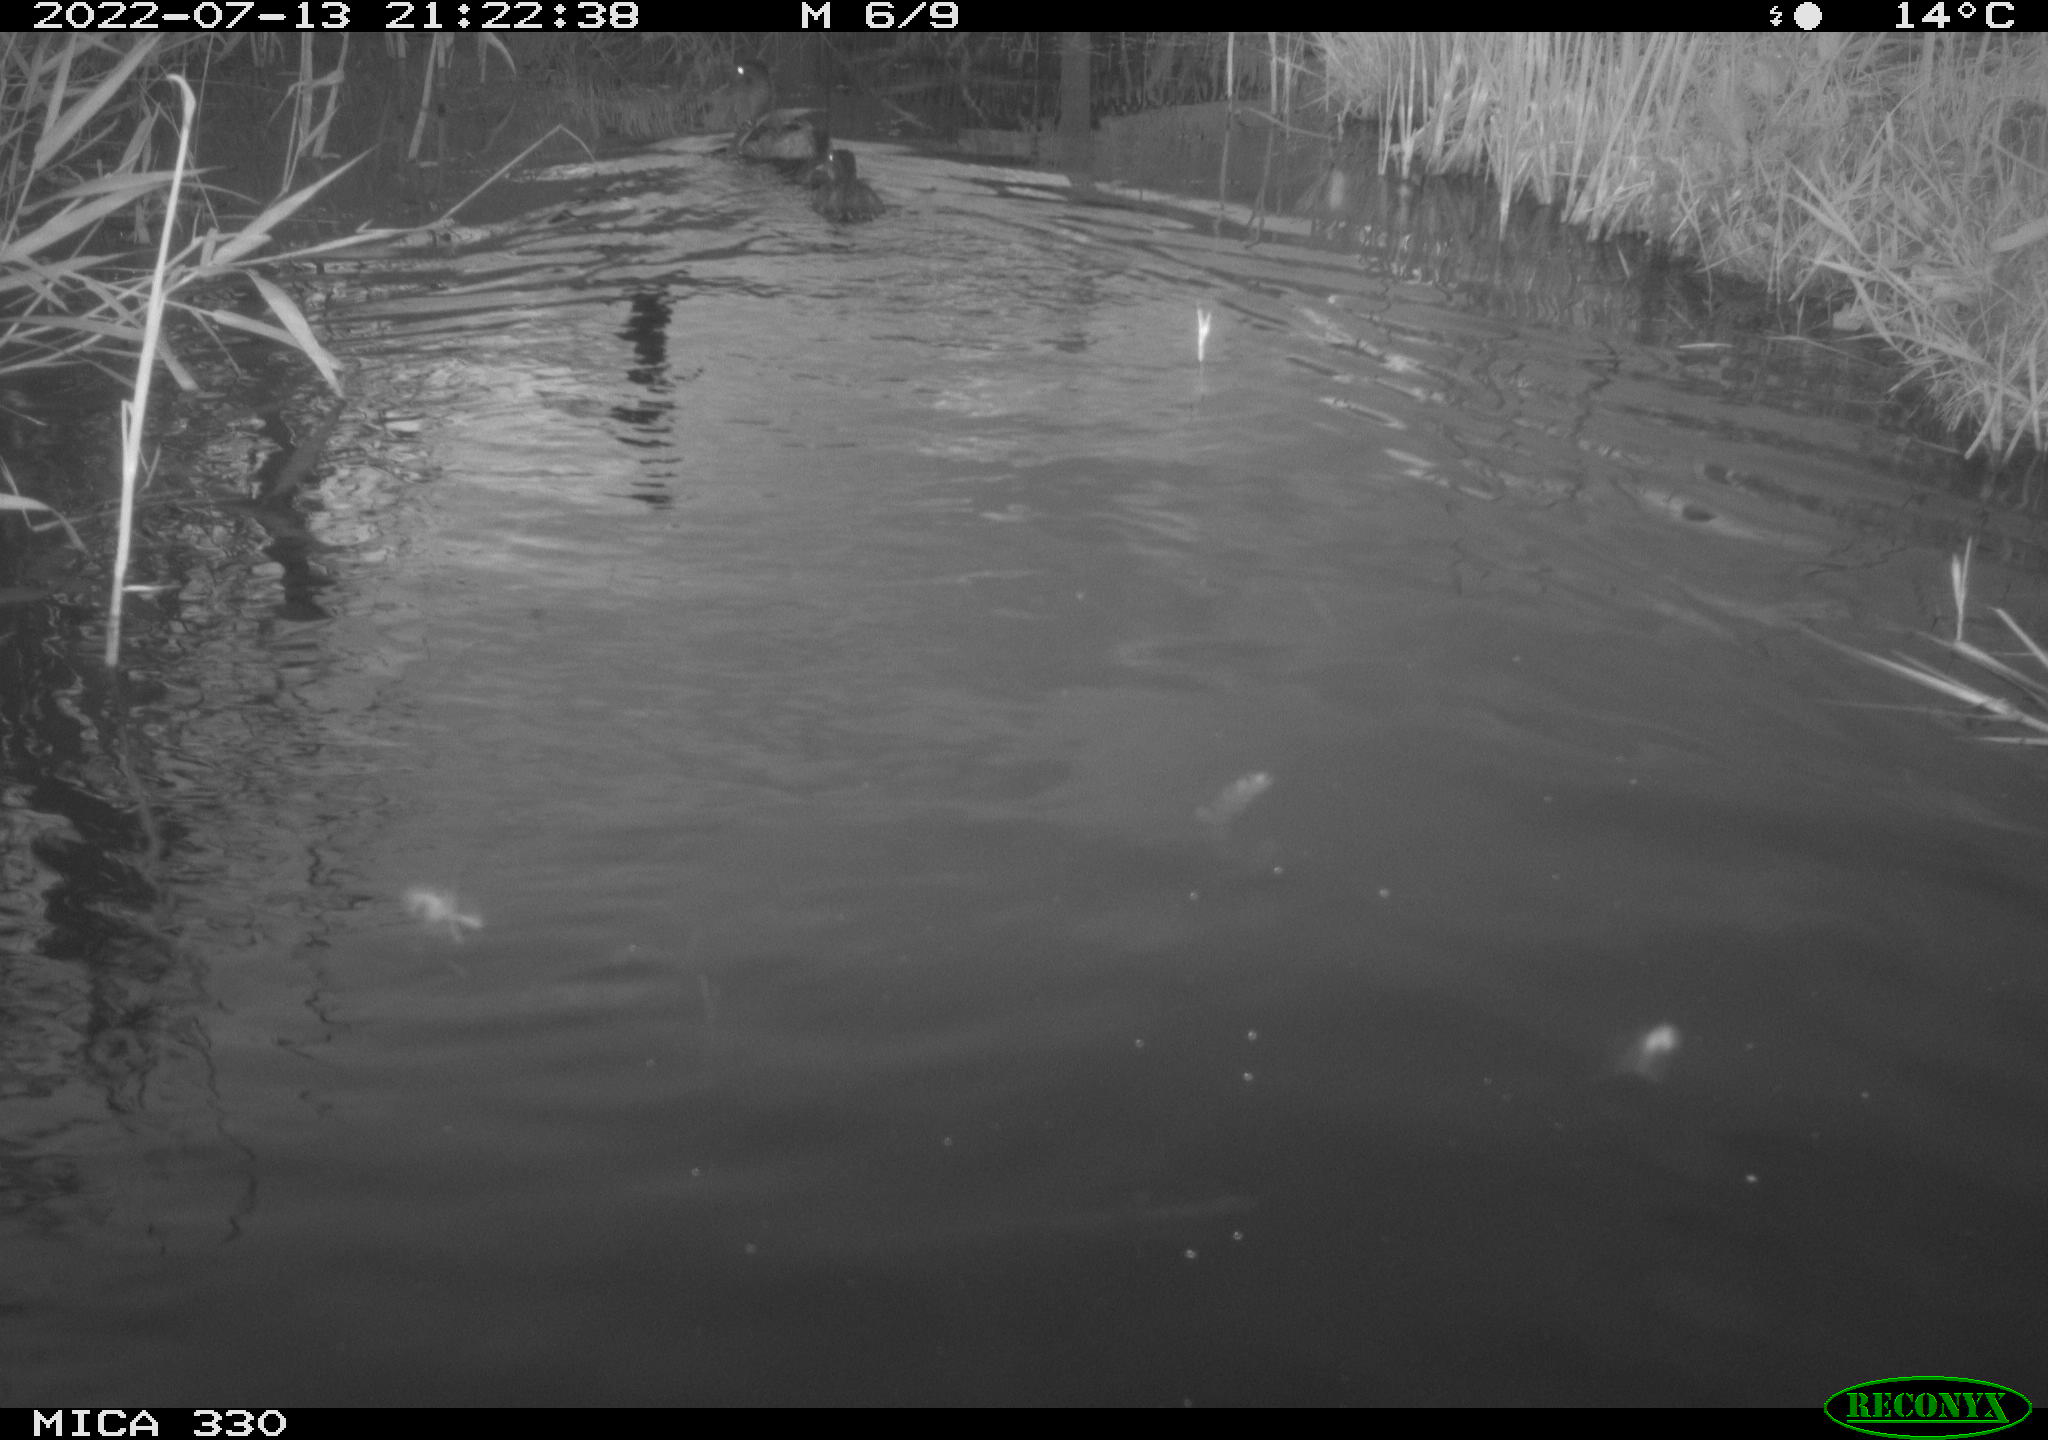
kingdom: Animalia
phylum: Chordata
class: Aves
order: Anseriformes
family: Anatidae
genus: Anas
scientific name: Anas platyrhynchos
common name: Mallard
